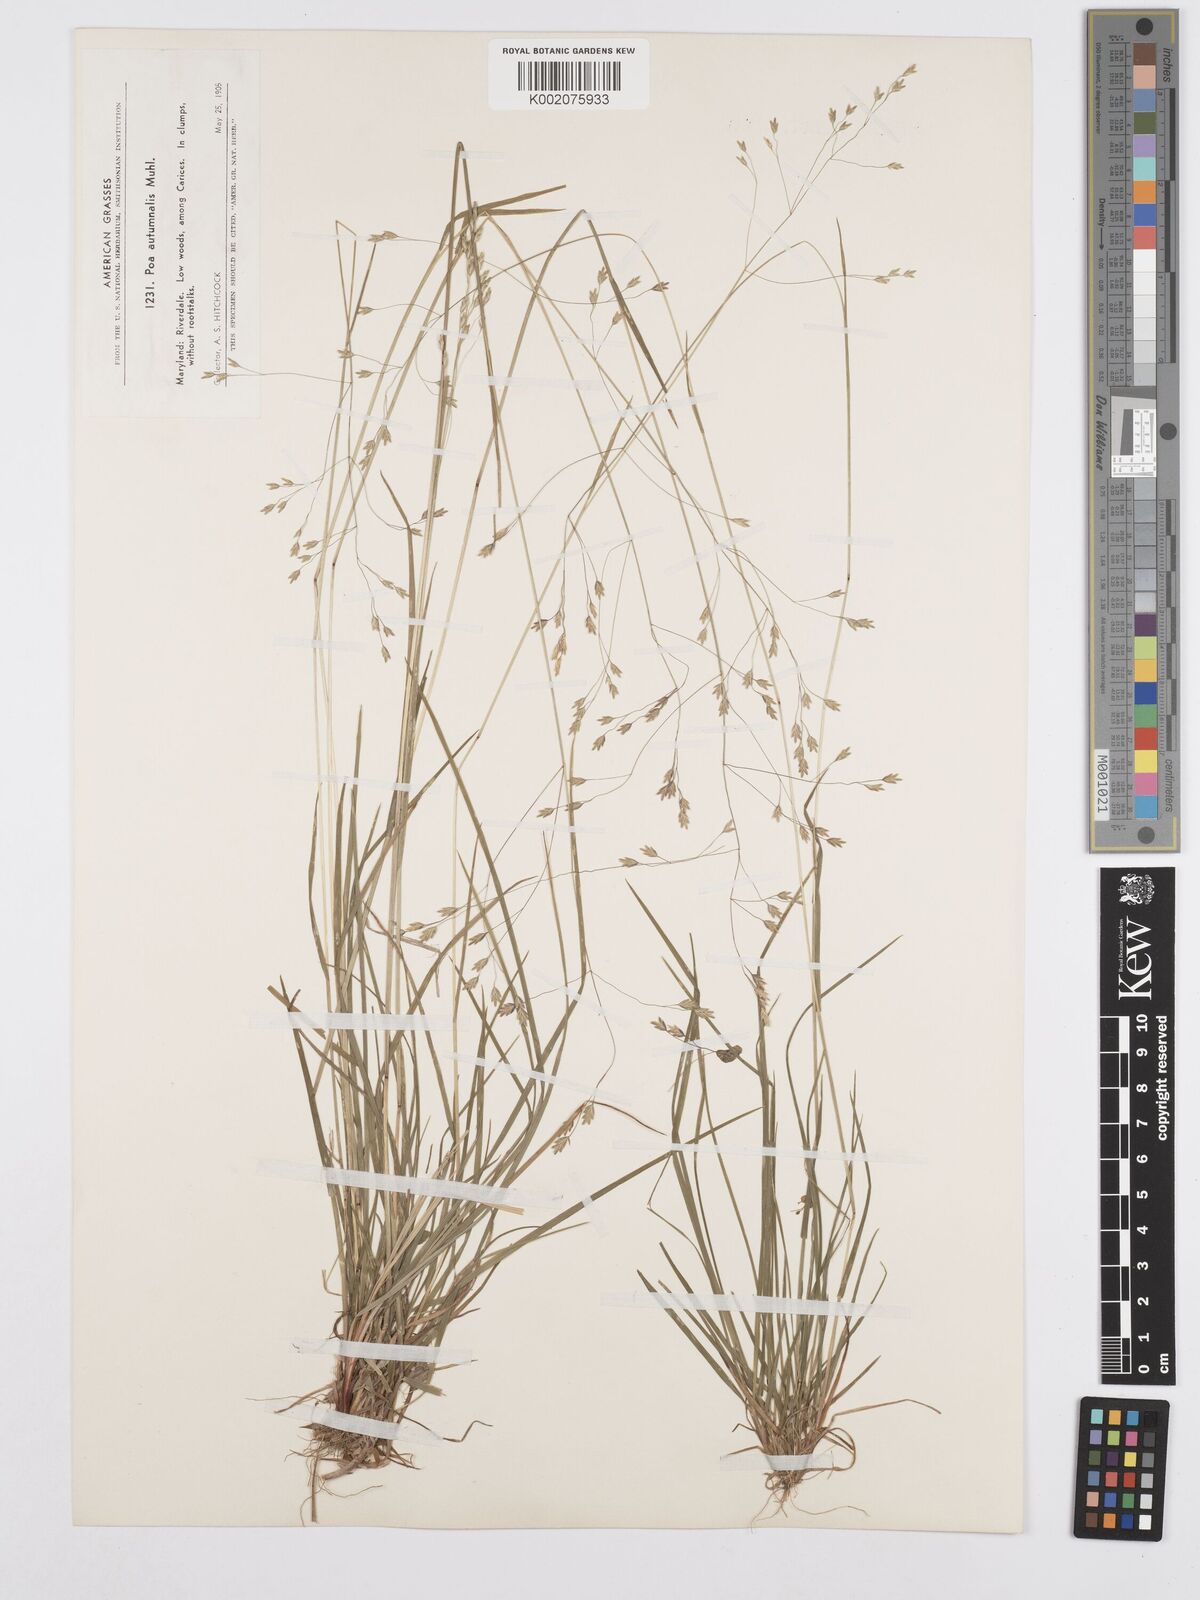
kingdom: Plantae
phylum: Tracheophyta
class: Liliopsida
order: Poales
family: Poaceae
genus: Poa
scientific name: Poa autumnalis
